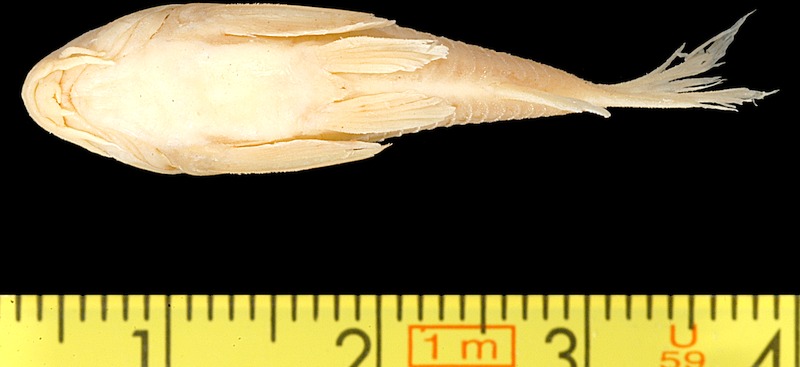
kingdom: Animalia
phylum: Chordata
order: Siluriformes
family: Callichthyidae
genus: Corydoras
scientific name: Corydoras julii
